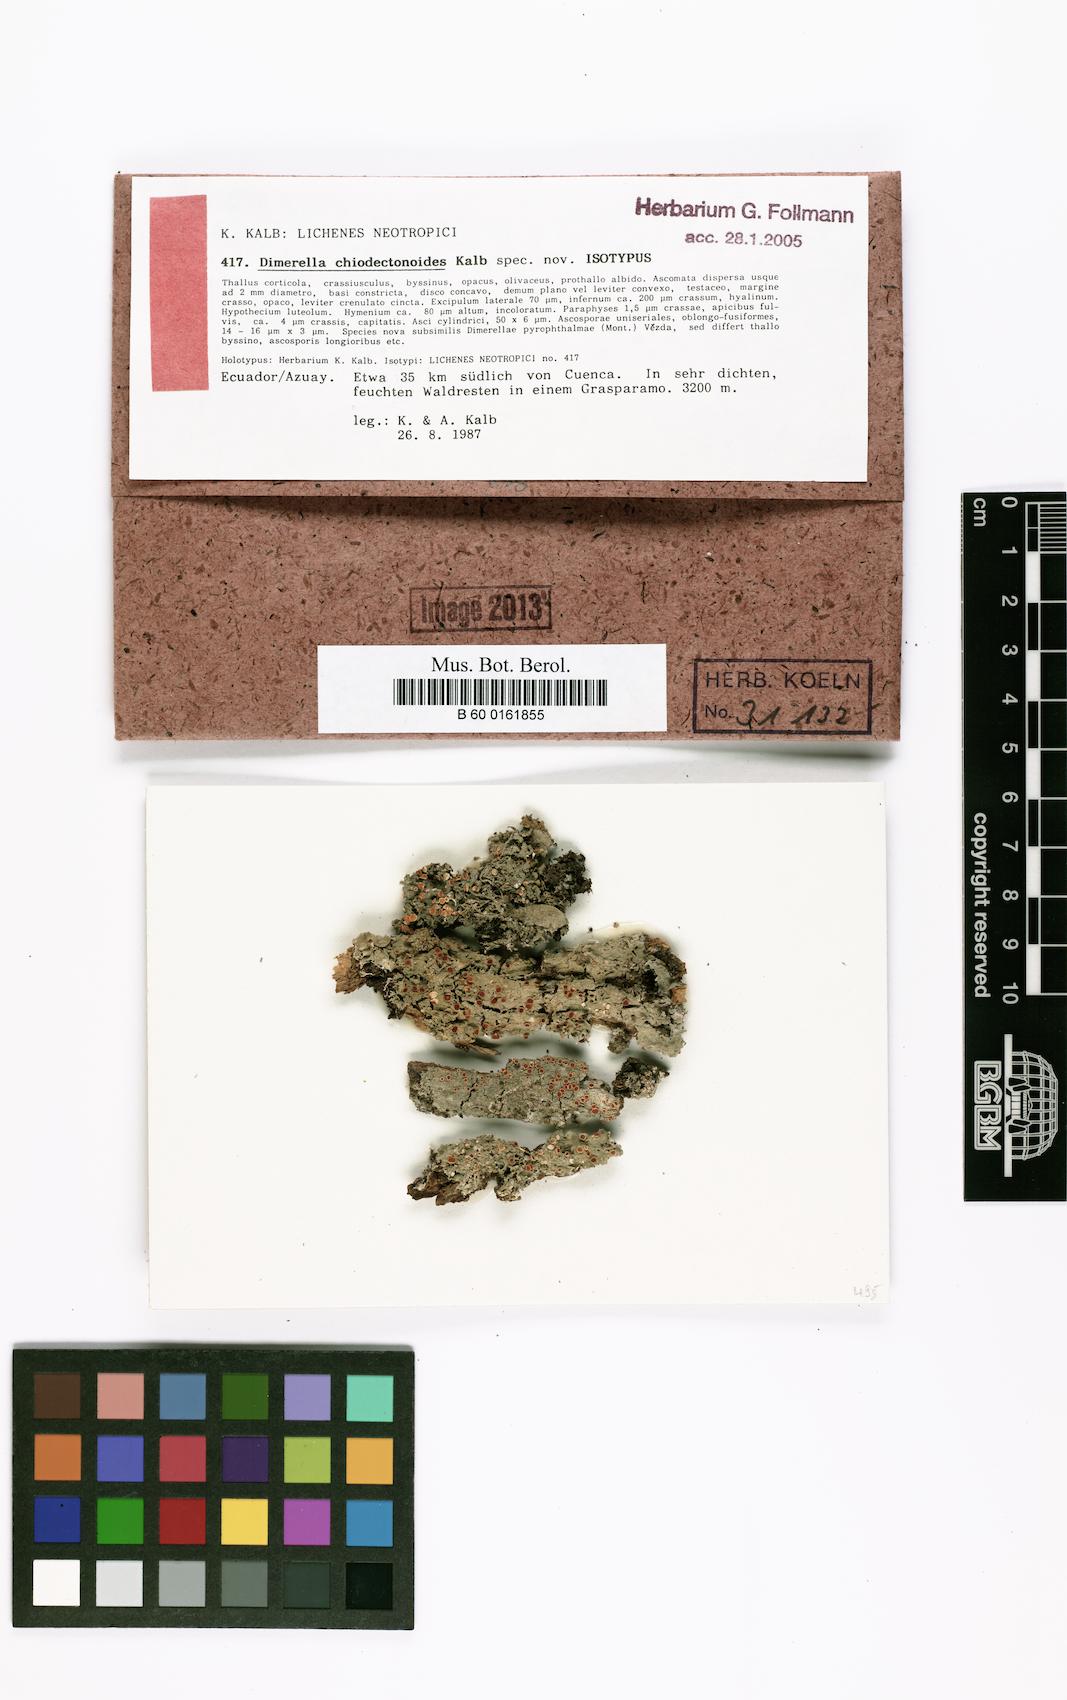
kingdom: Fungi
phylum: Ascomycota
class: Lecanoromycetes
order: Gyalectales
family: Gyalectaceae
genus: Dimerella
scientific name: Dimerella chiodectonoides
